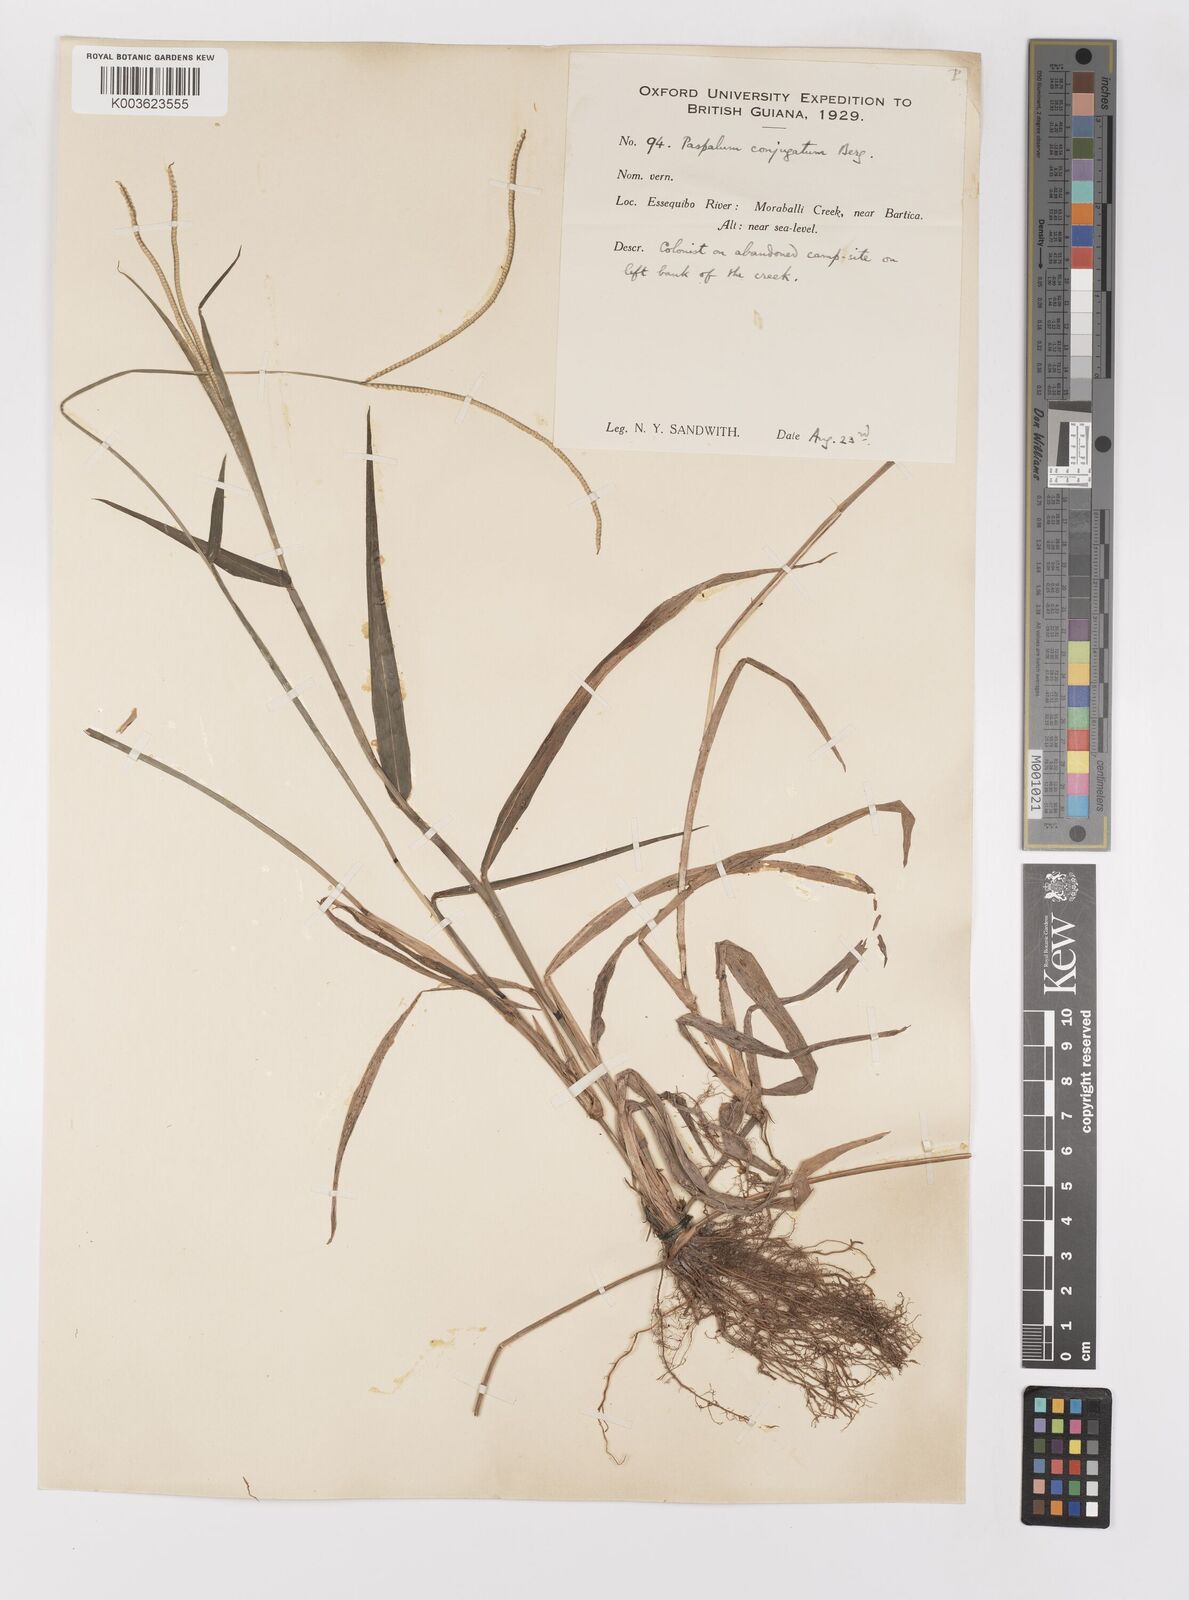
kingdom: Plantae
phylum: Tracheophyta
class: Liliopsida
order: Poales
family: Poaceae
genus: Paspalum
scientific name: Paspalum conjugatum
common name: Hilograss
